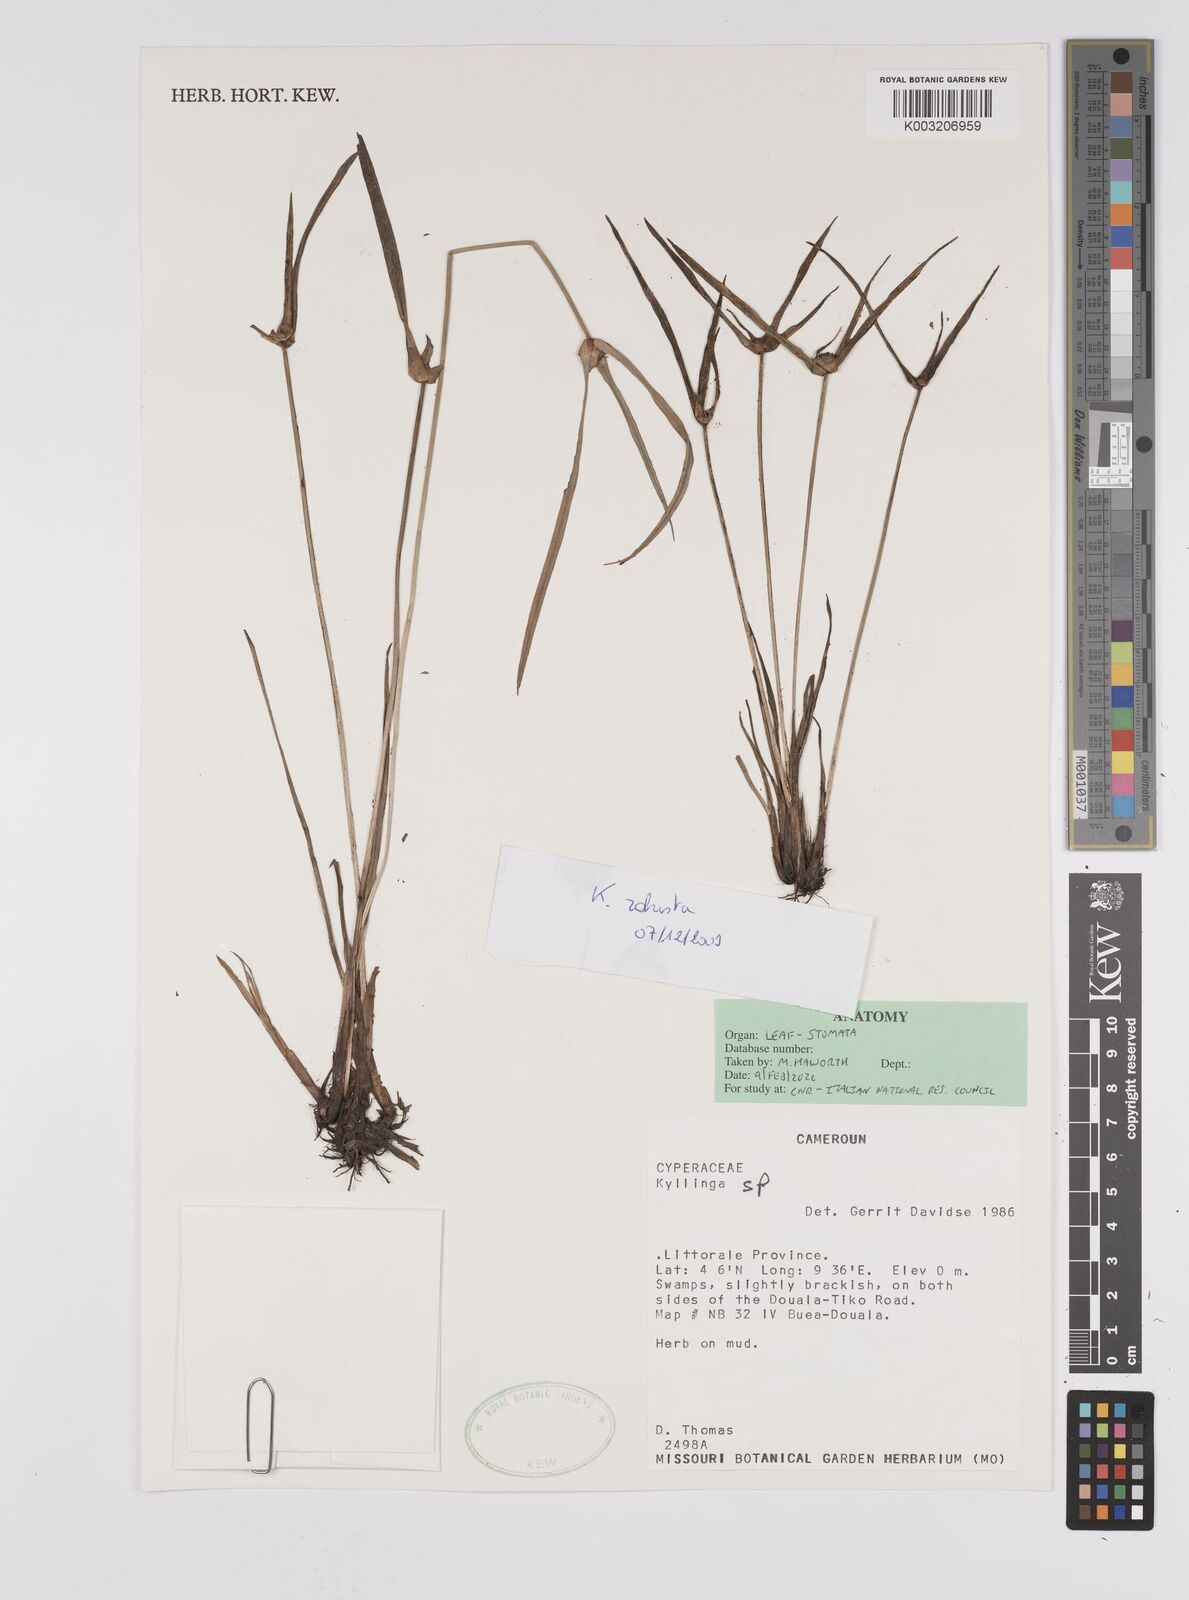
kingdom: Plantae
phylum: Tracheophyta
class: Liliopsida
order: Poales
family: Cyperaceae
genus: Cyperus
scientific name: Cyperus
